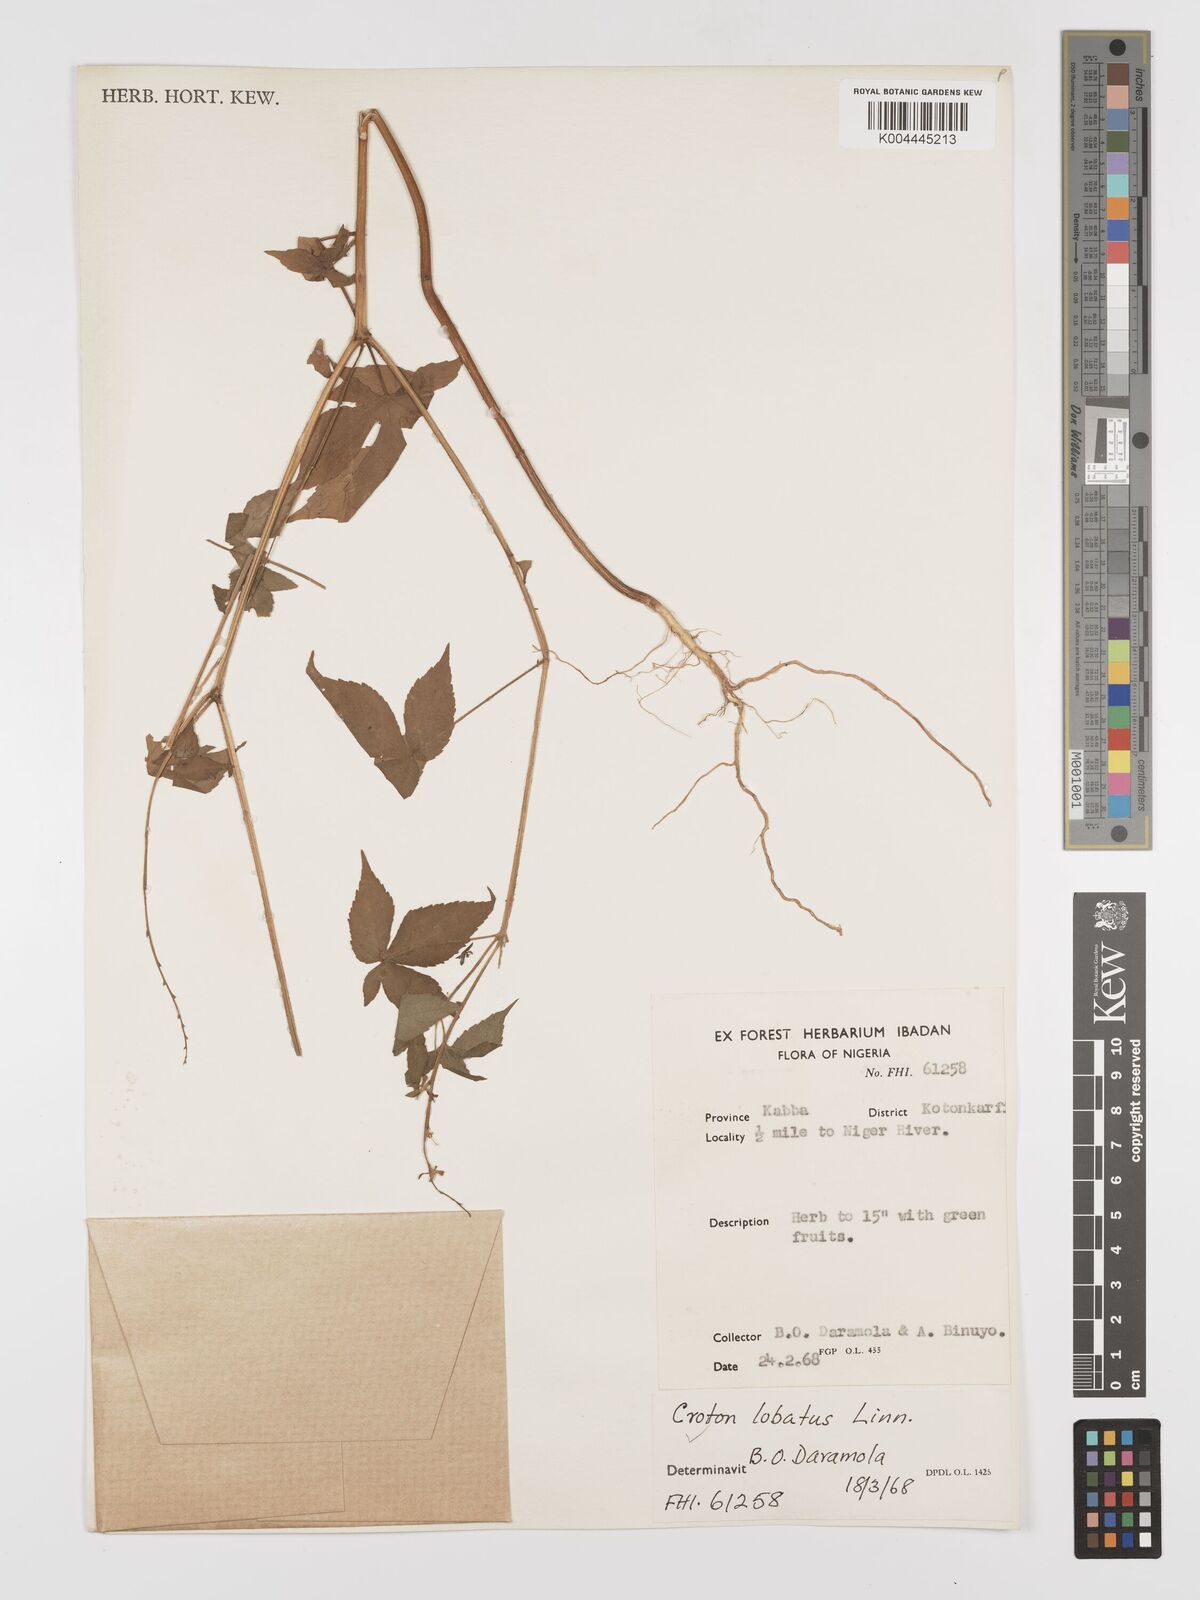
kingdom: Plantae
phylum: Tracheophyta
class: Magnoliopsida
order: Malpighiales
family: Euphorbiaceae
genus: Astraea
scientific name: Astraea lobata
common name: Lobed croton
